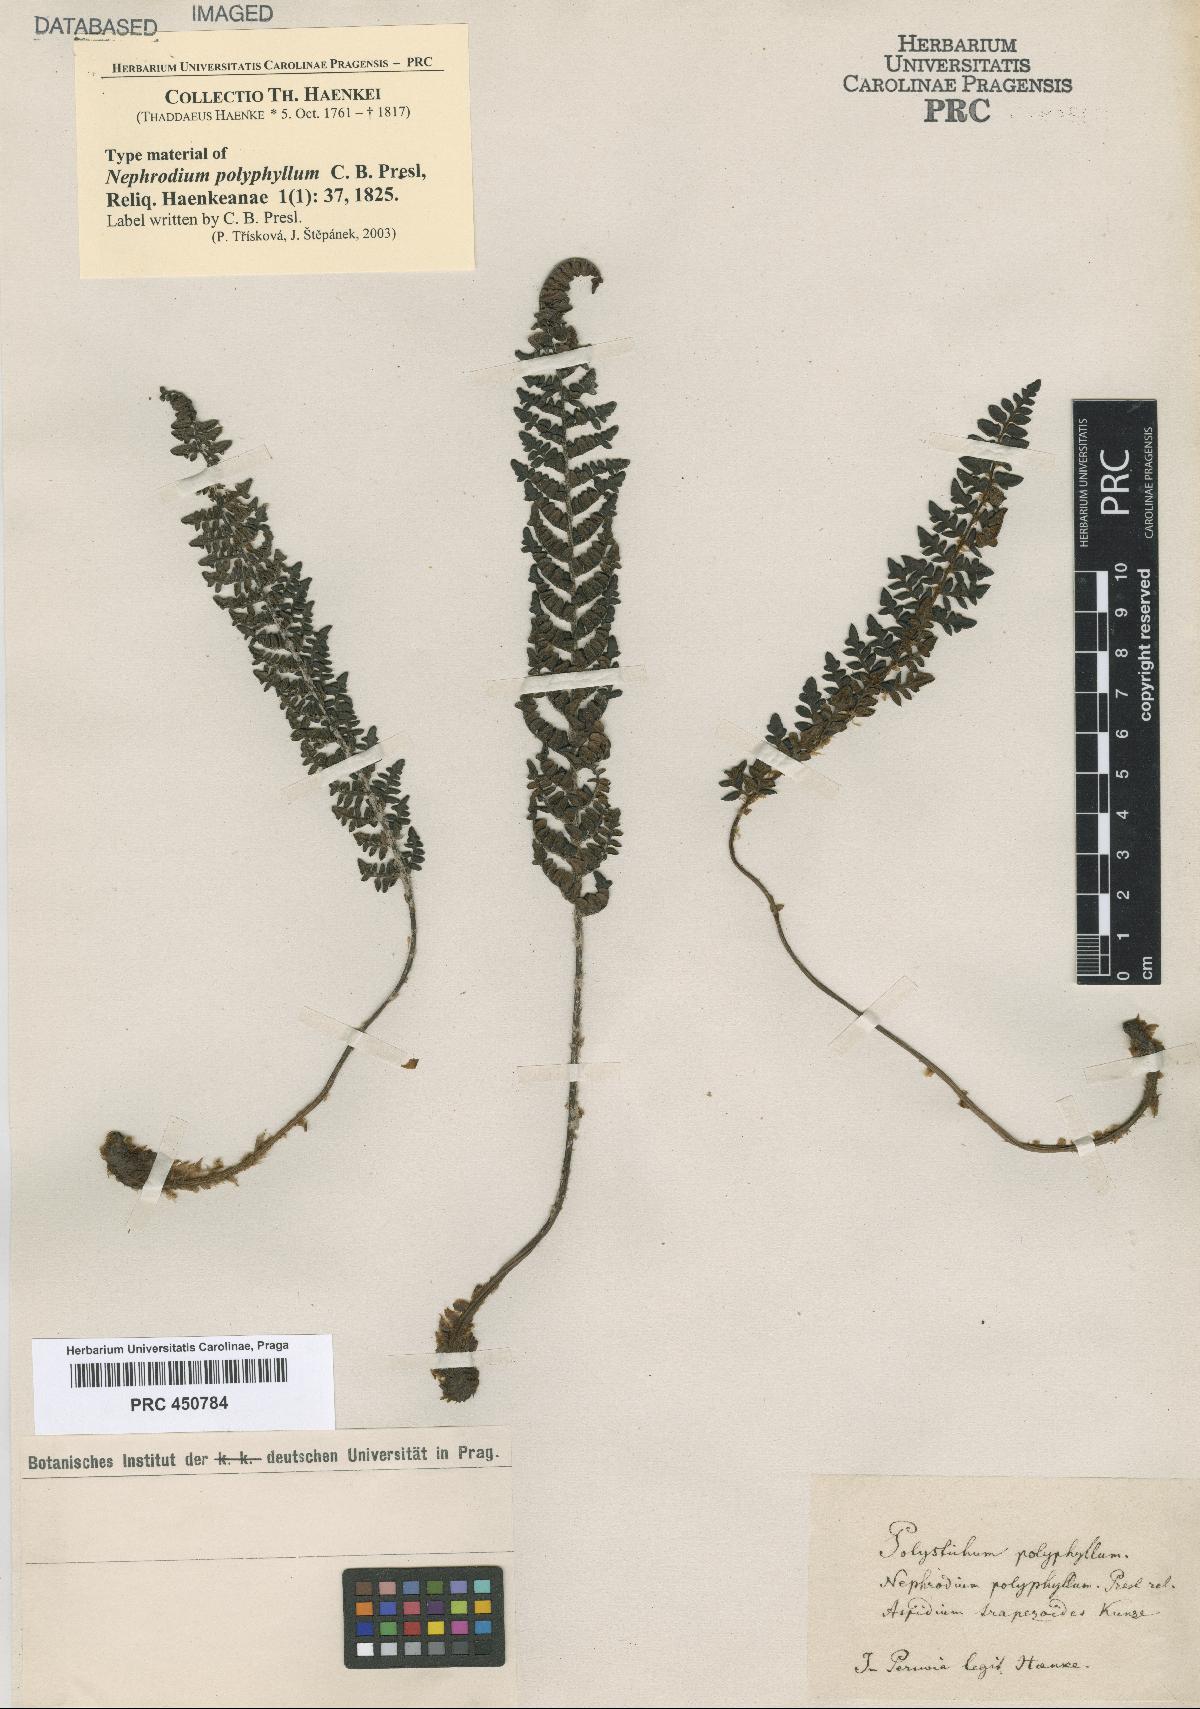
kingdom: Plantae
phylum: Tracheophyta
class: Polypodiopsida
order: Polypodiales
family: Dryopteridaceae
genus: Polystichum
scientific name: Polystichum polyphyllum
